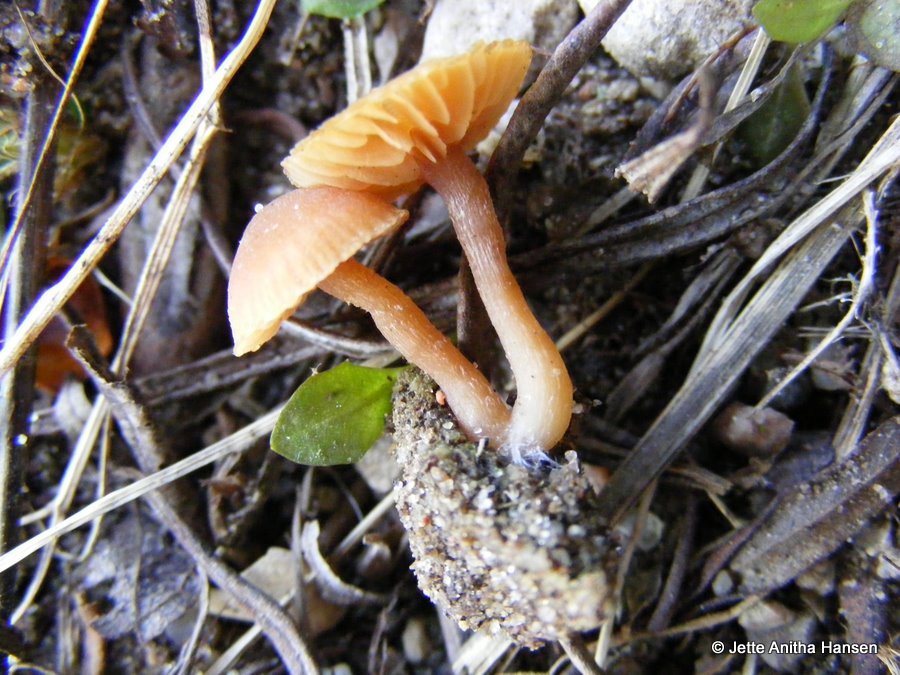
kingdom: Fungi
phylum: Basidiomycota
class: Agaricomycetes
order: Agaricales
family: Tubariaceae
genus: Tubaria
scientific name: Tubaria furfuracea
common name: kliddet fnughat
